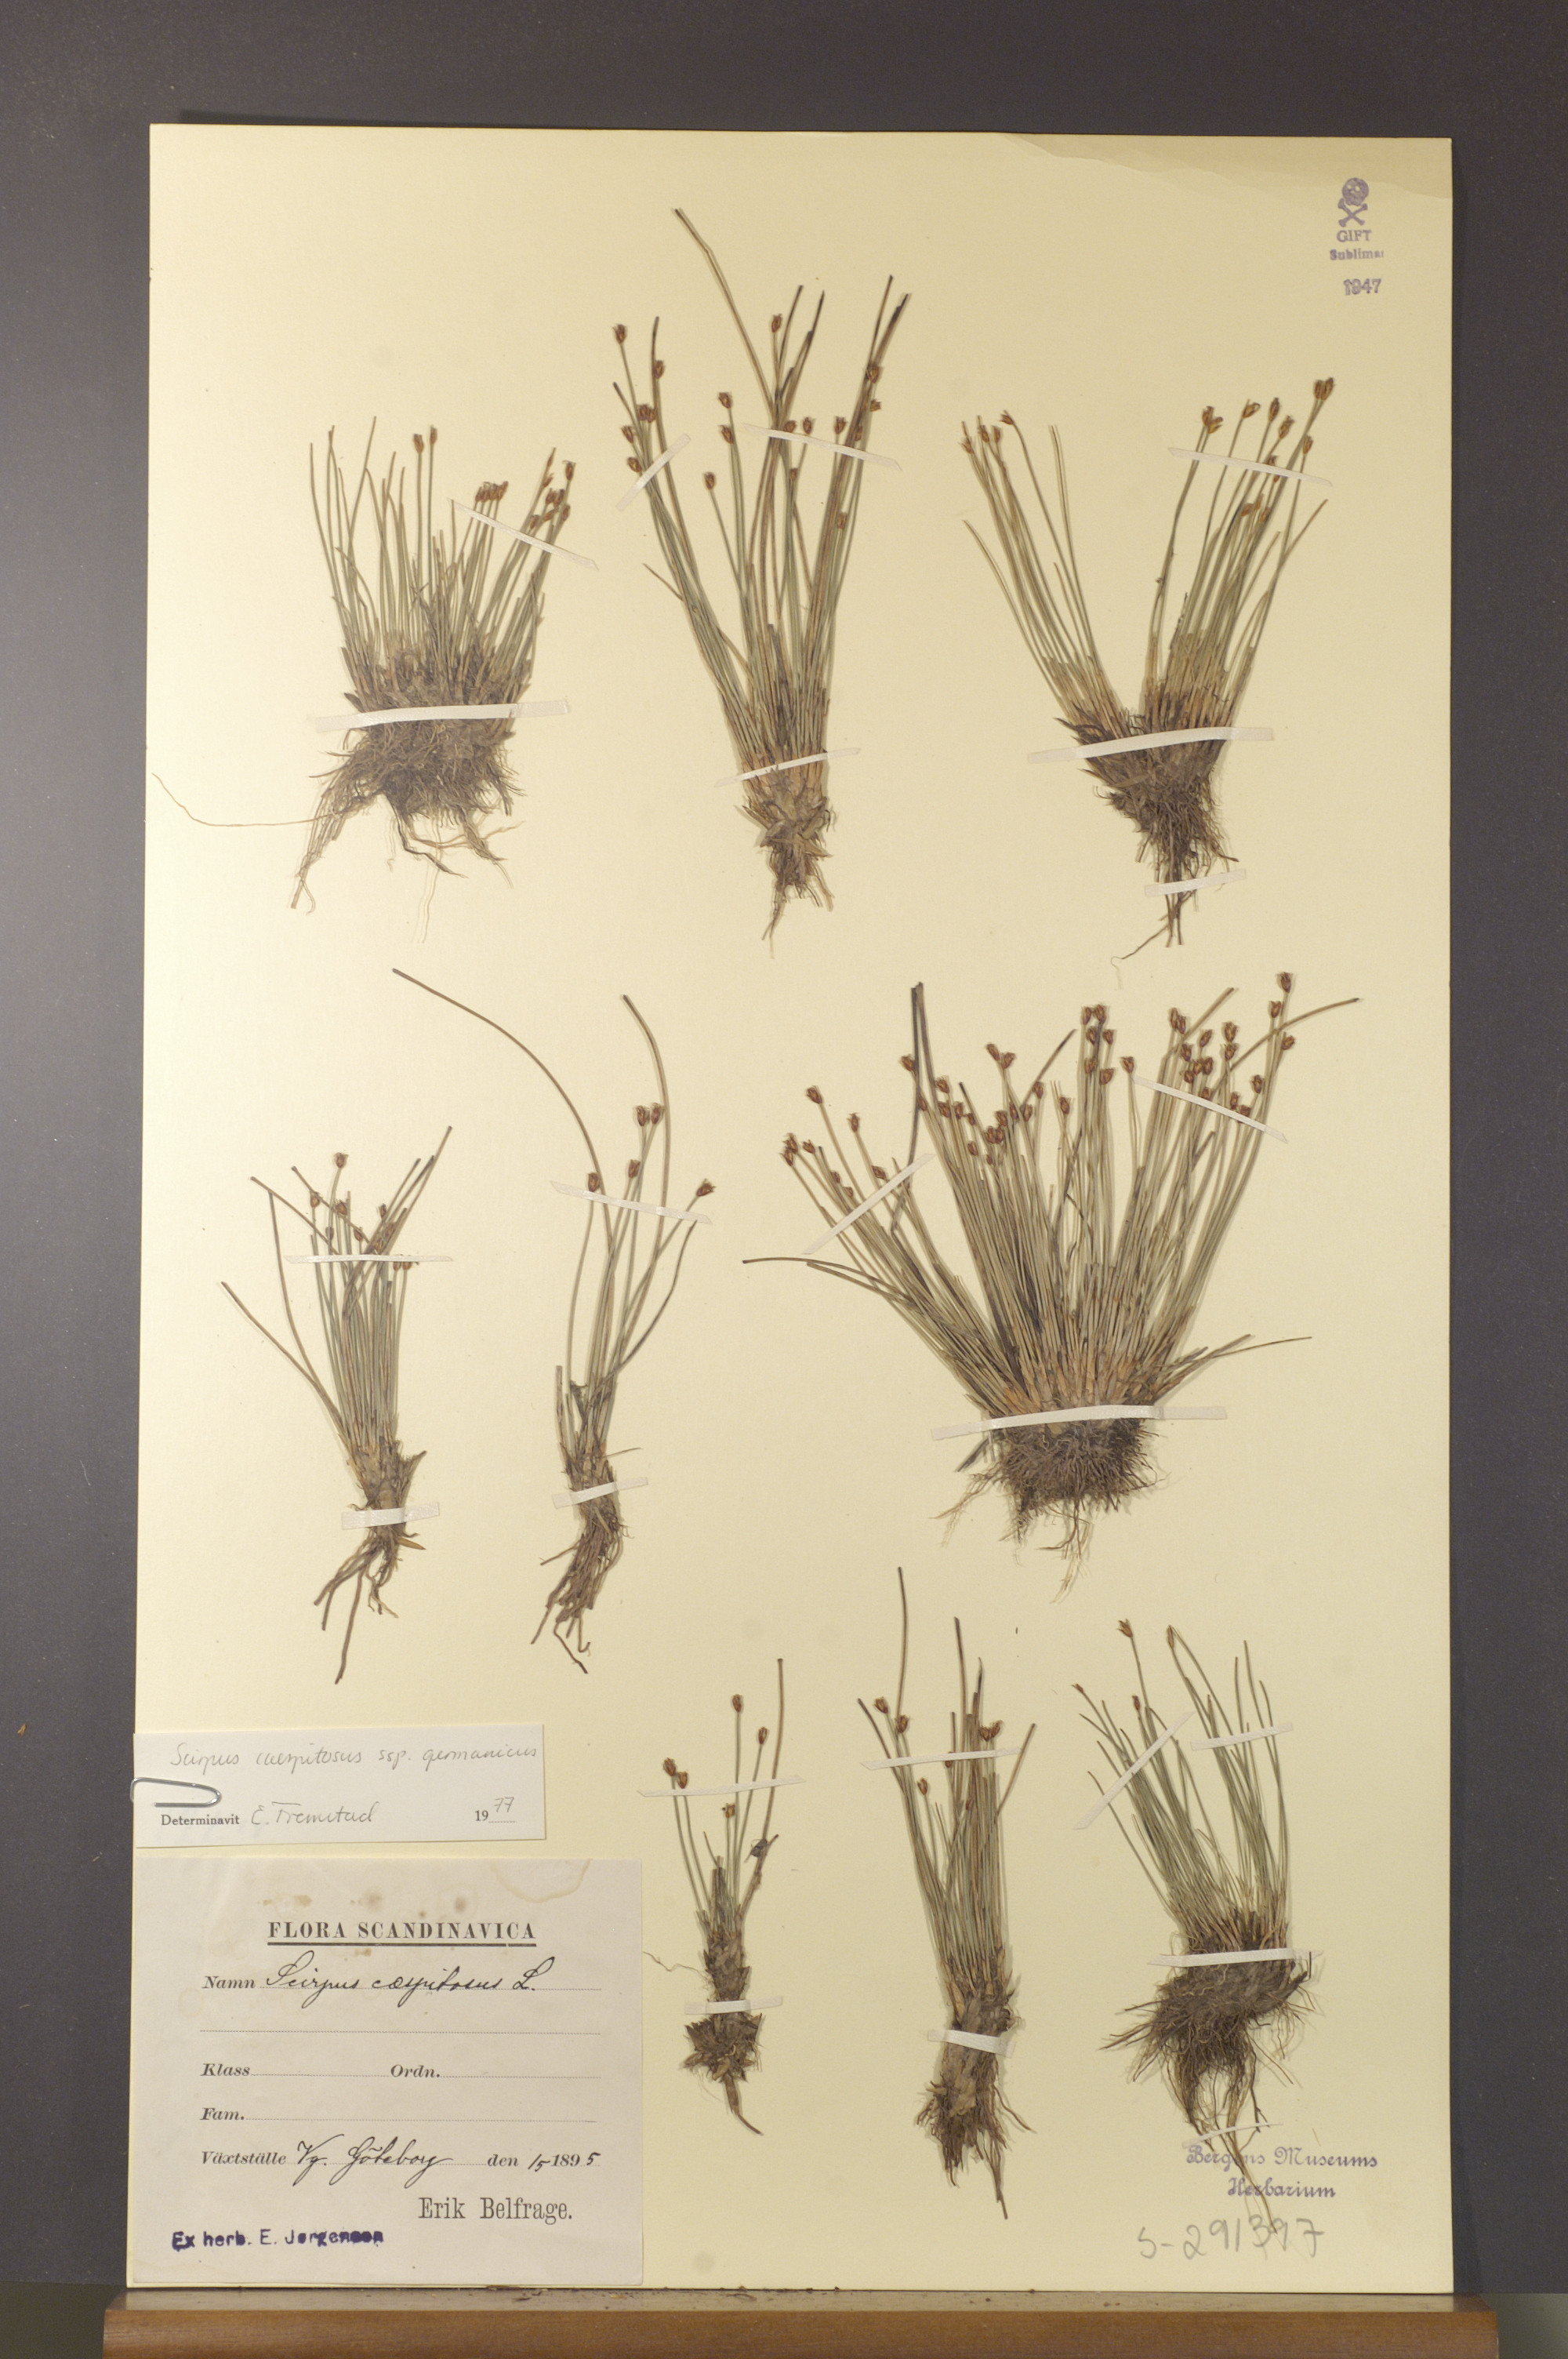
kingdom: Plantae
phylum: Tracheophyta
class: Liliopsida
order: Poales
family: Cyperaceae
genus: Trichophorum
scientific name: Trichophorum cespitosum
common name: Cespitose bulrush
